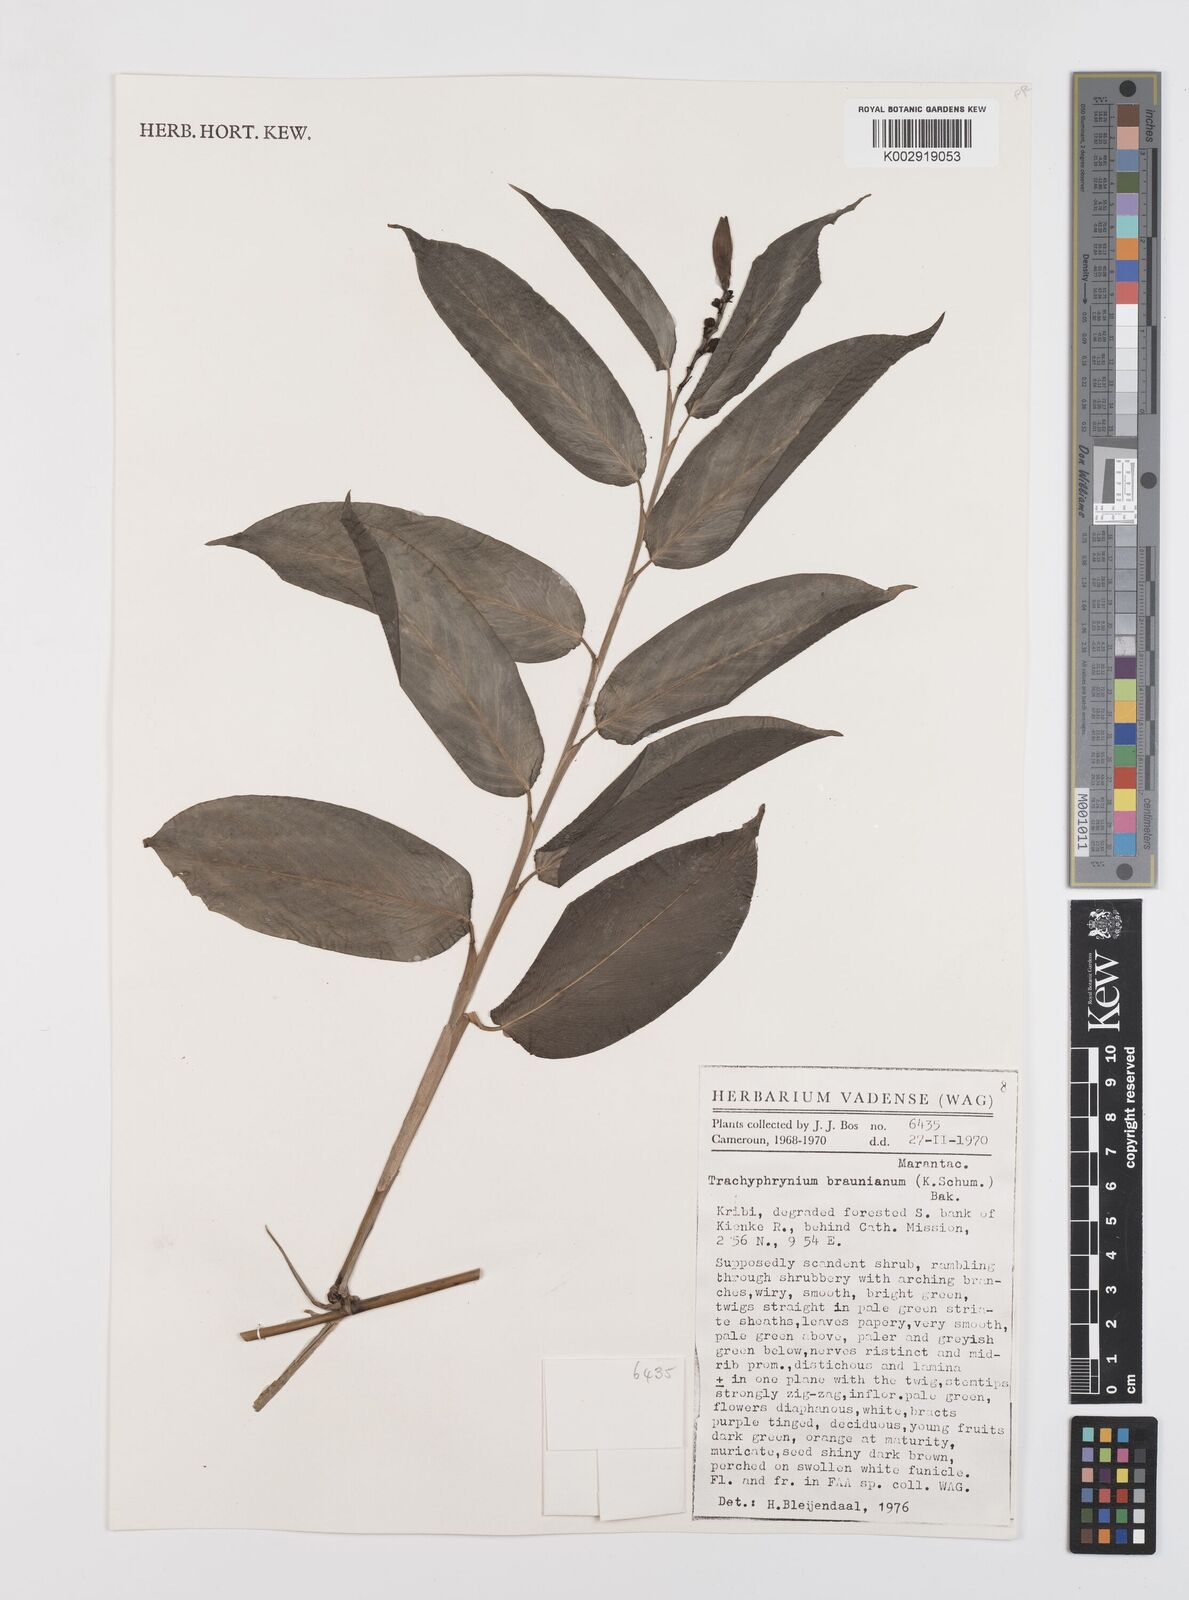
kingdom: Plantae
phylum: Tracheophyta
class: Liliopsida
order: Zingiberales
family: Marantaceae
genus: Trachyphrynium
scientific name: Trachyphrynium braunianum
